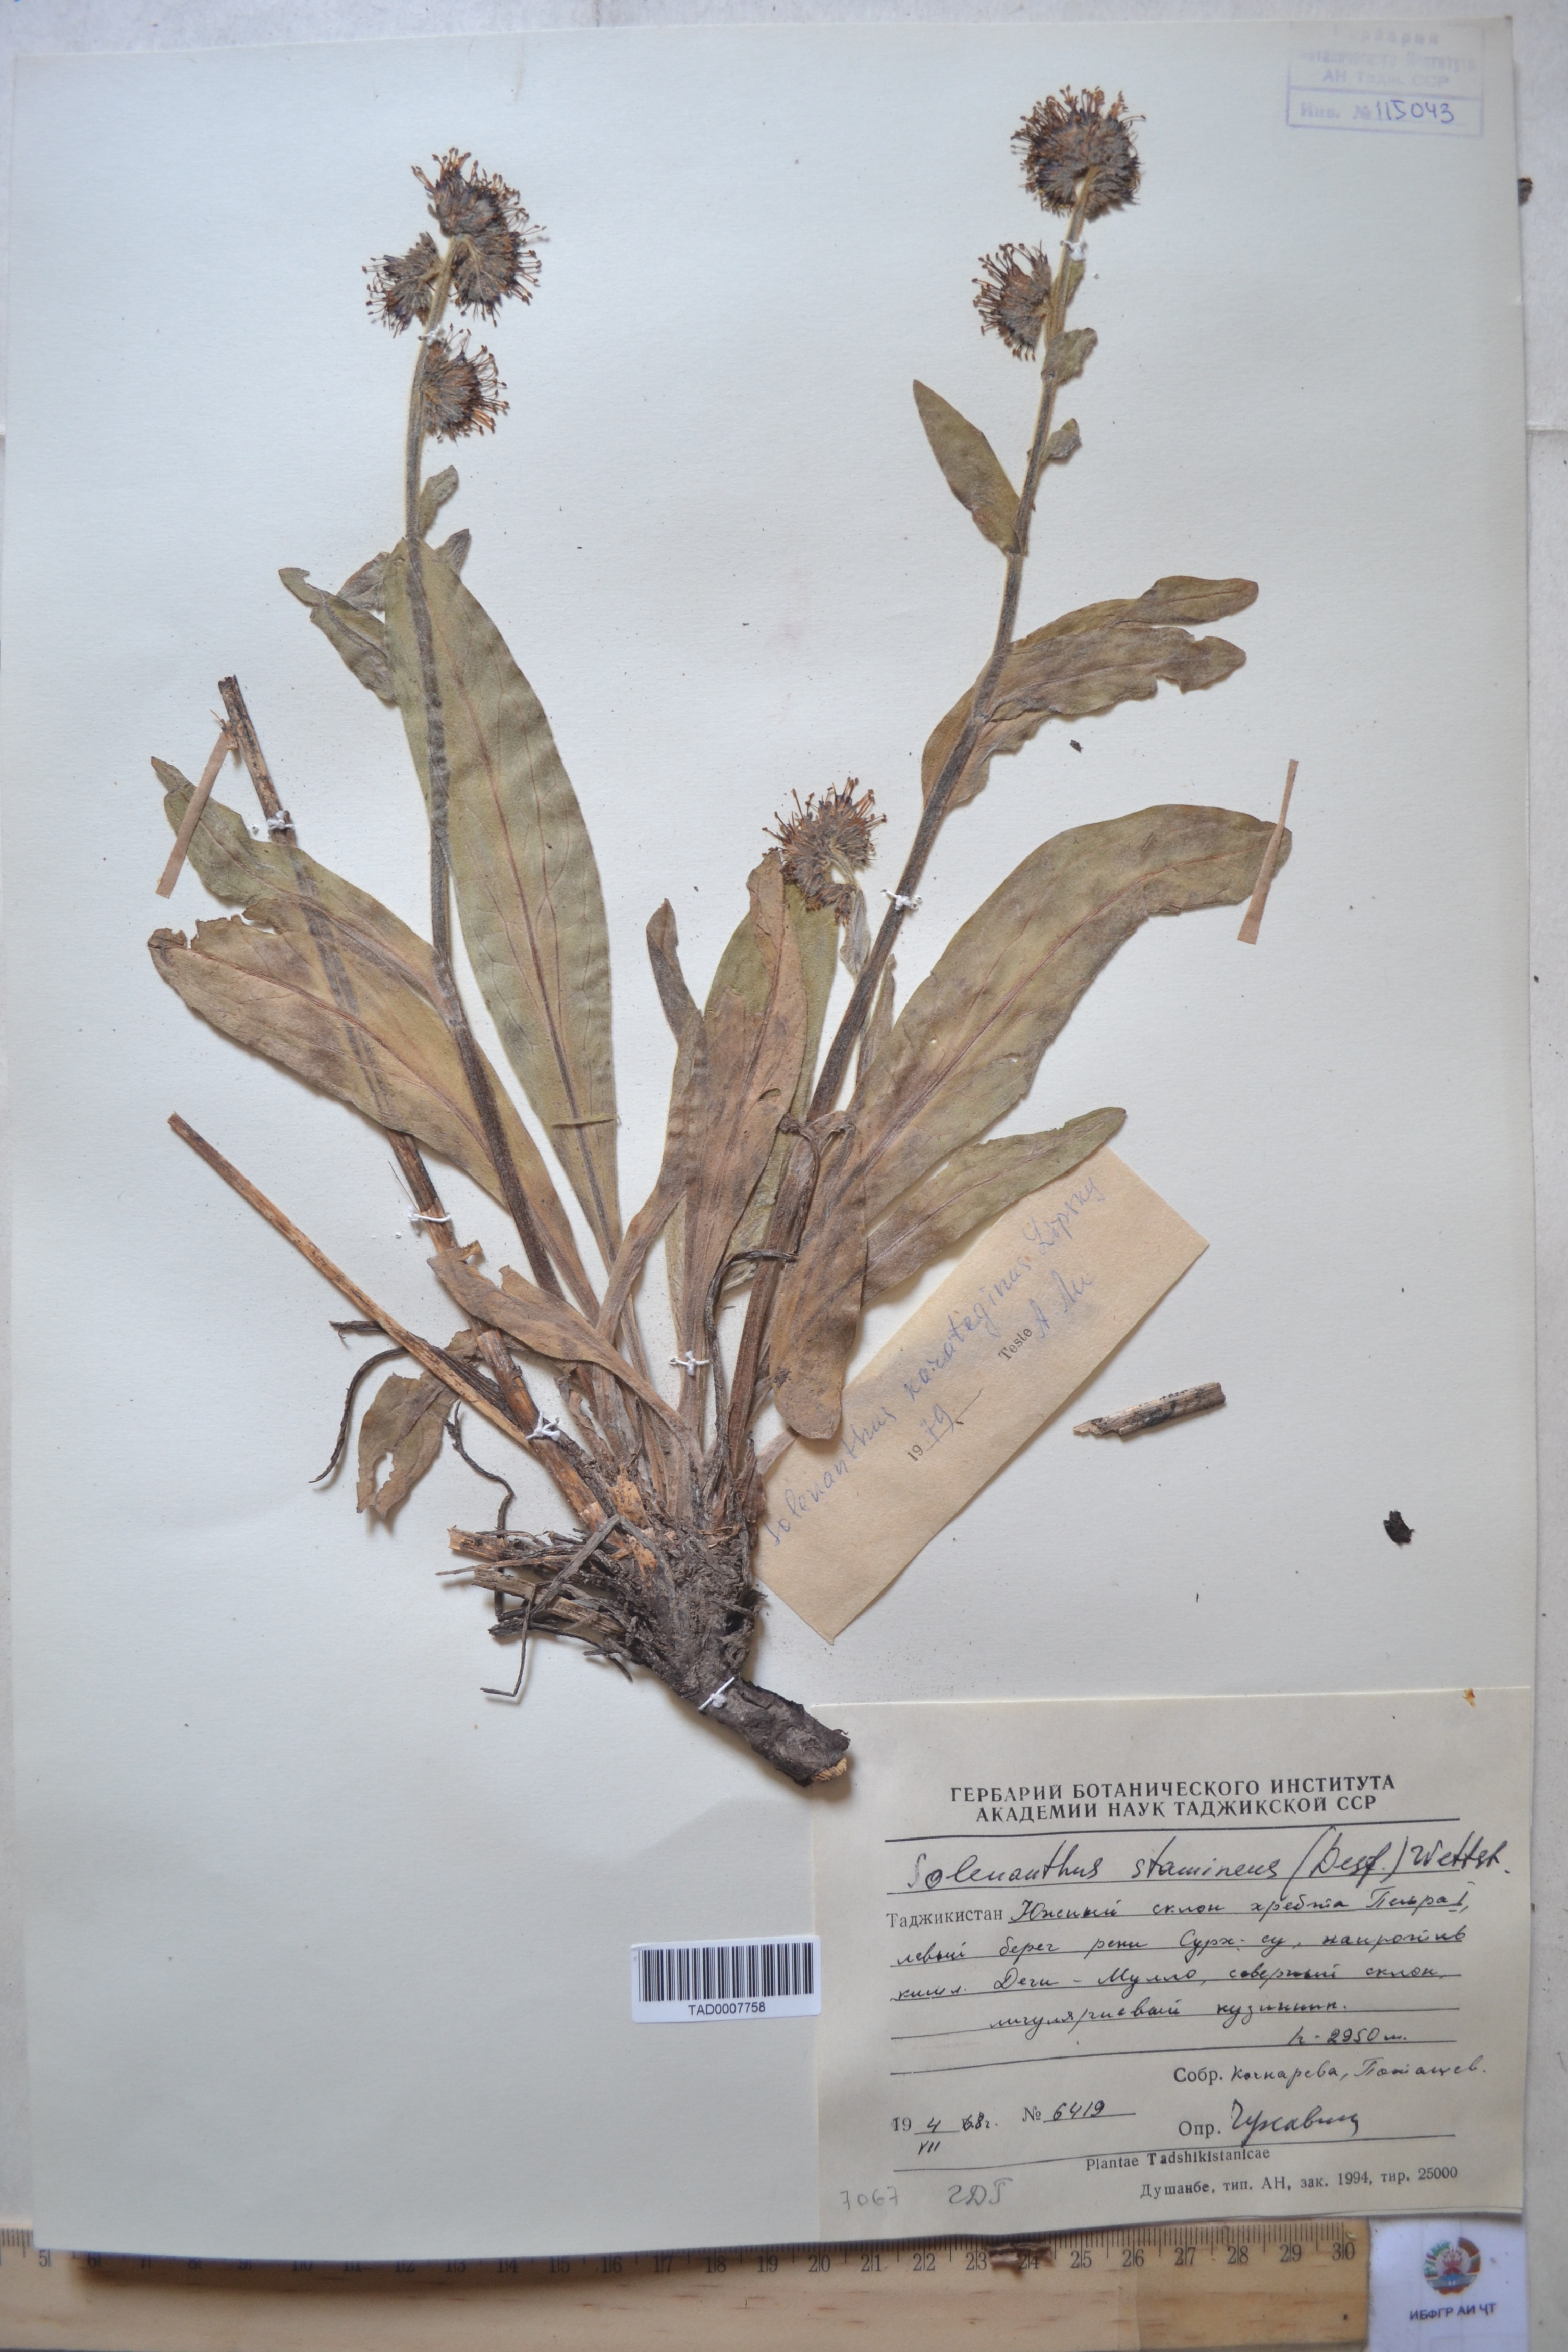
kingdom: Plantae
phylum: Tracheophyta
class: Magnoliopsida
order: Boraginales
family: Boraginaceae
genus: Solenanthus
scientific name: Solenanthus karateginus
